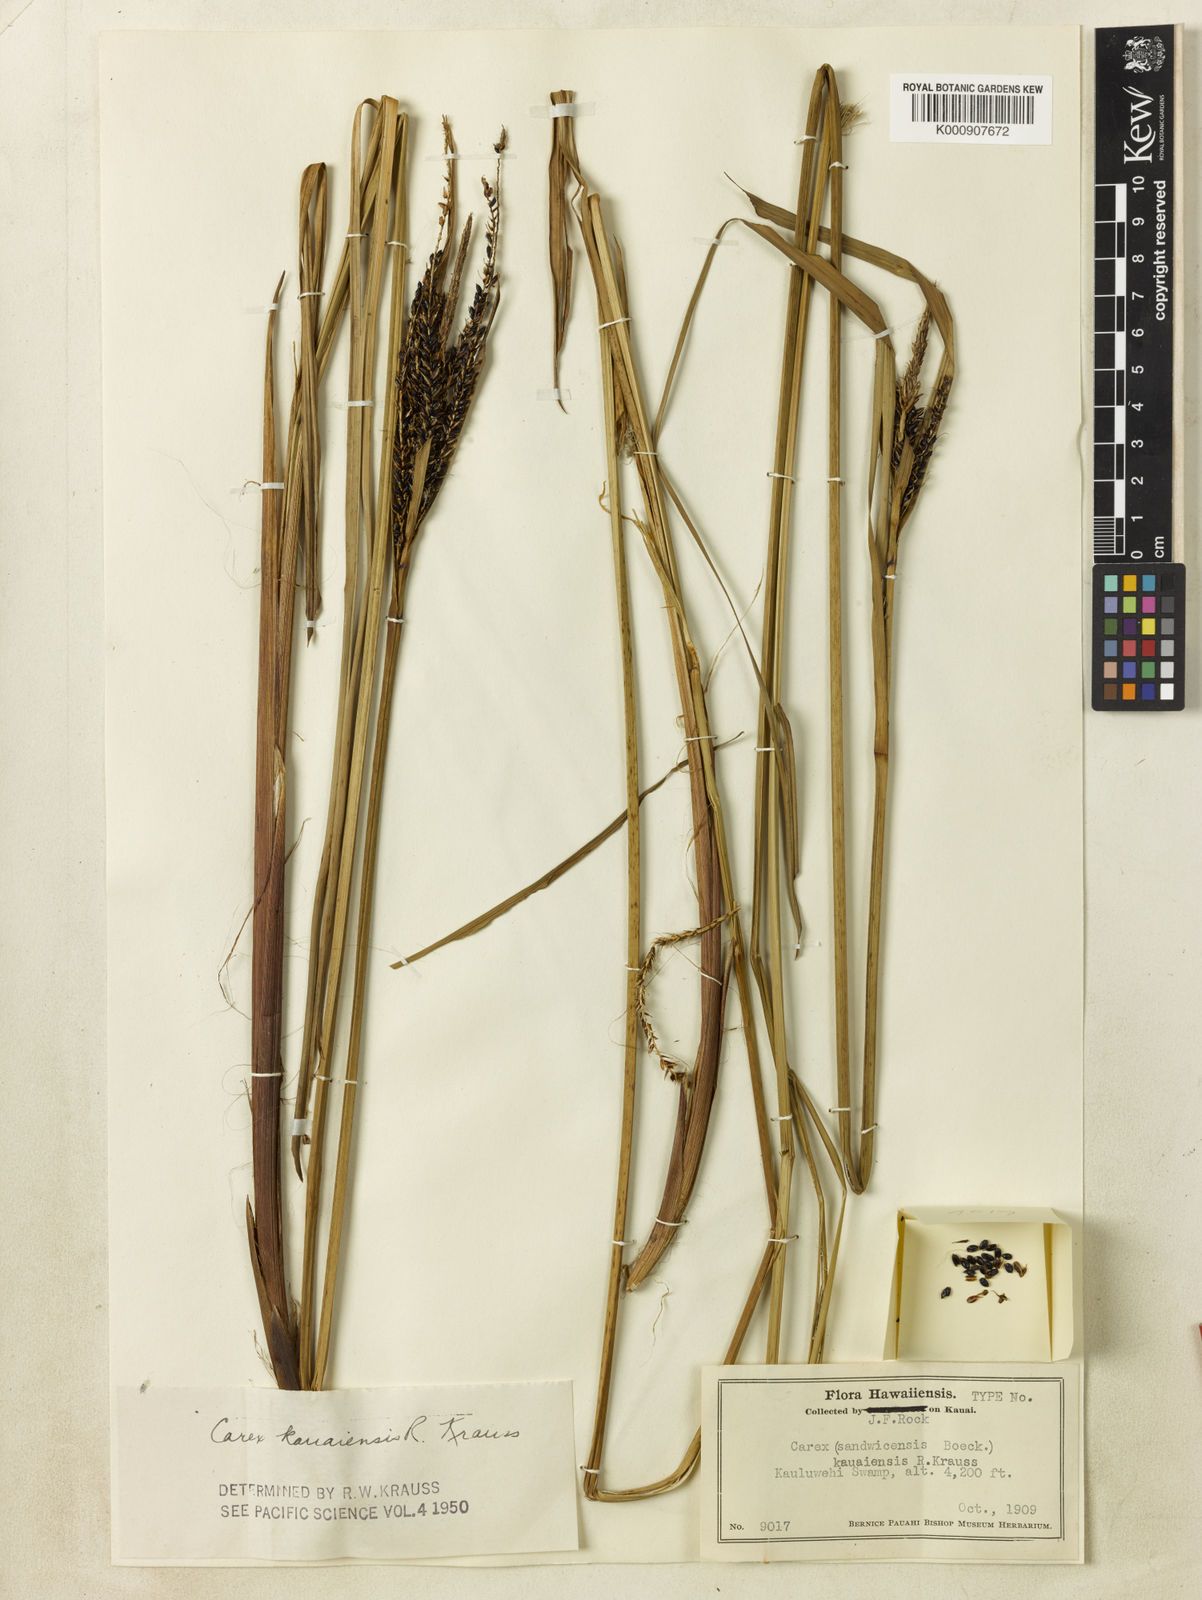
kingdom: Plantae
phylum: Tracheophyta
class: Liliopsida
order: Poales
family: Cyperaceae
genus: Carex
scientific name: Carex kauaiensis
